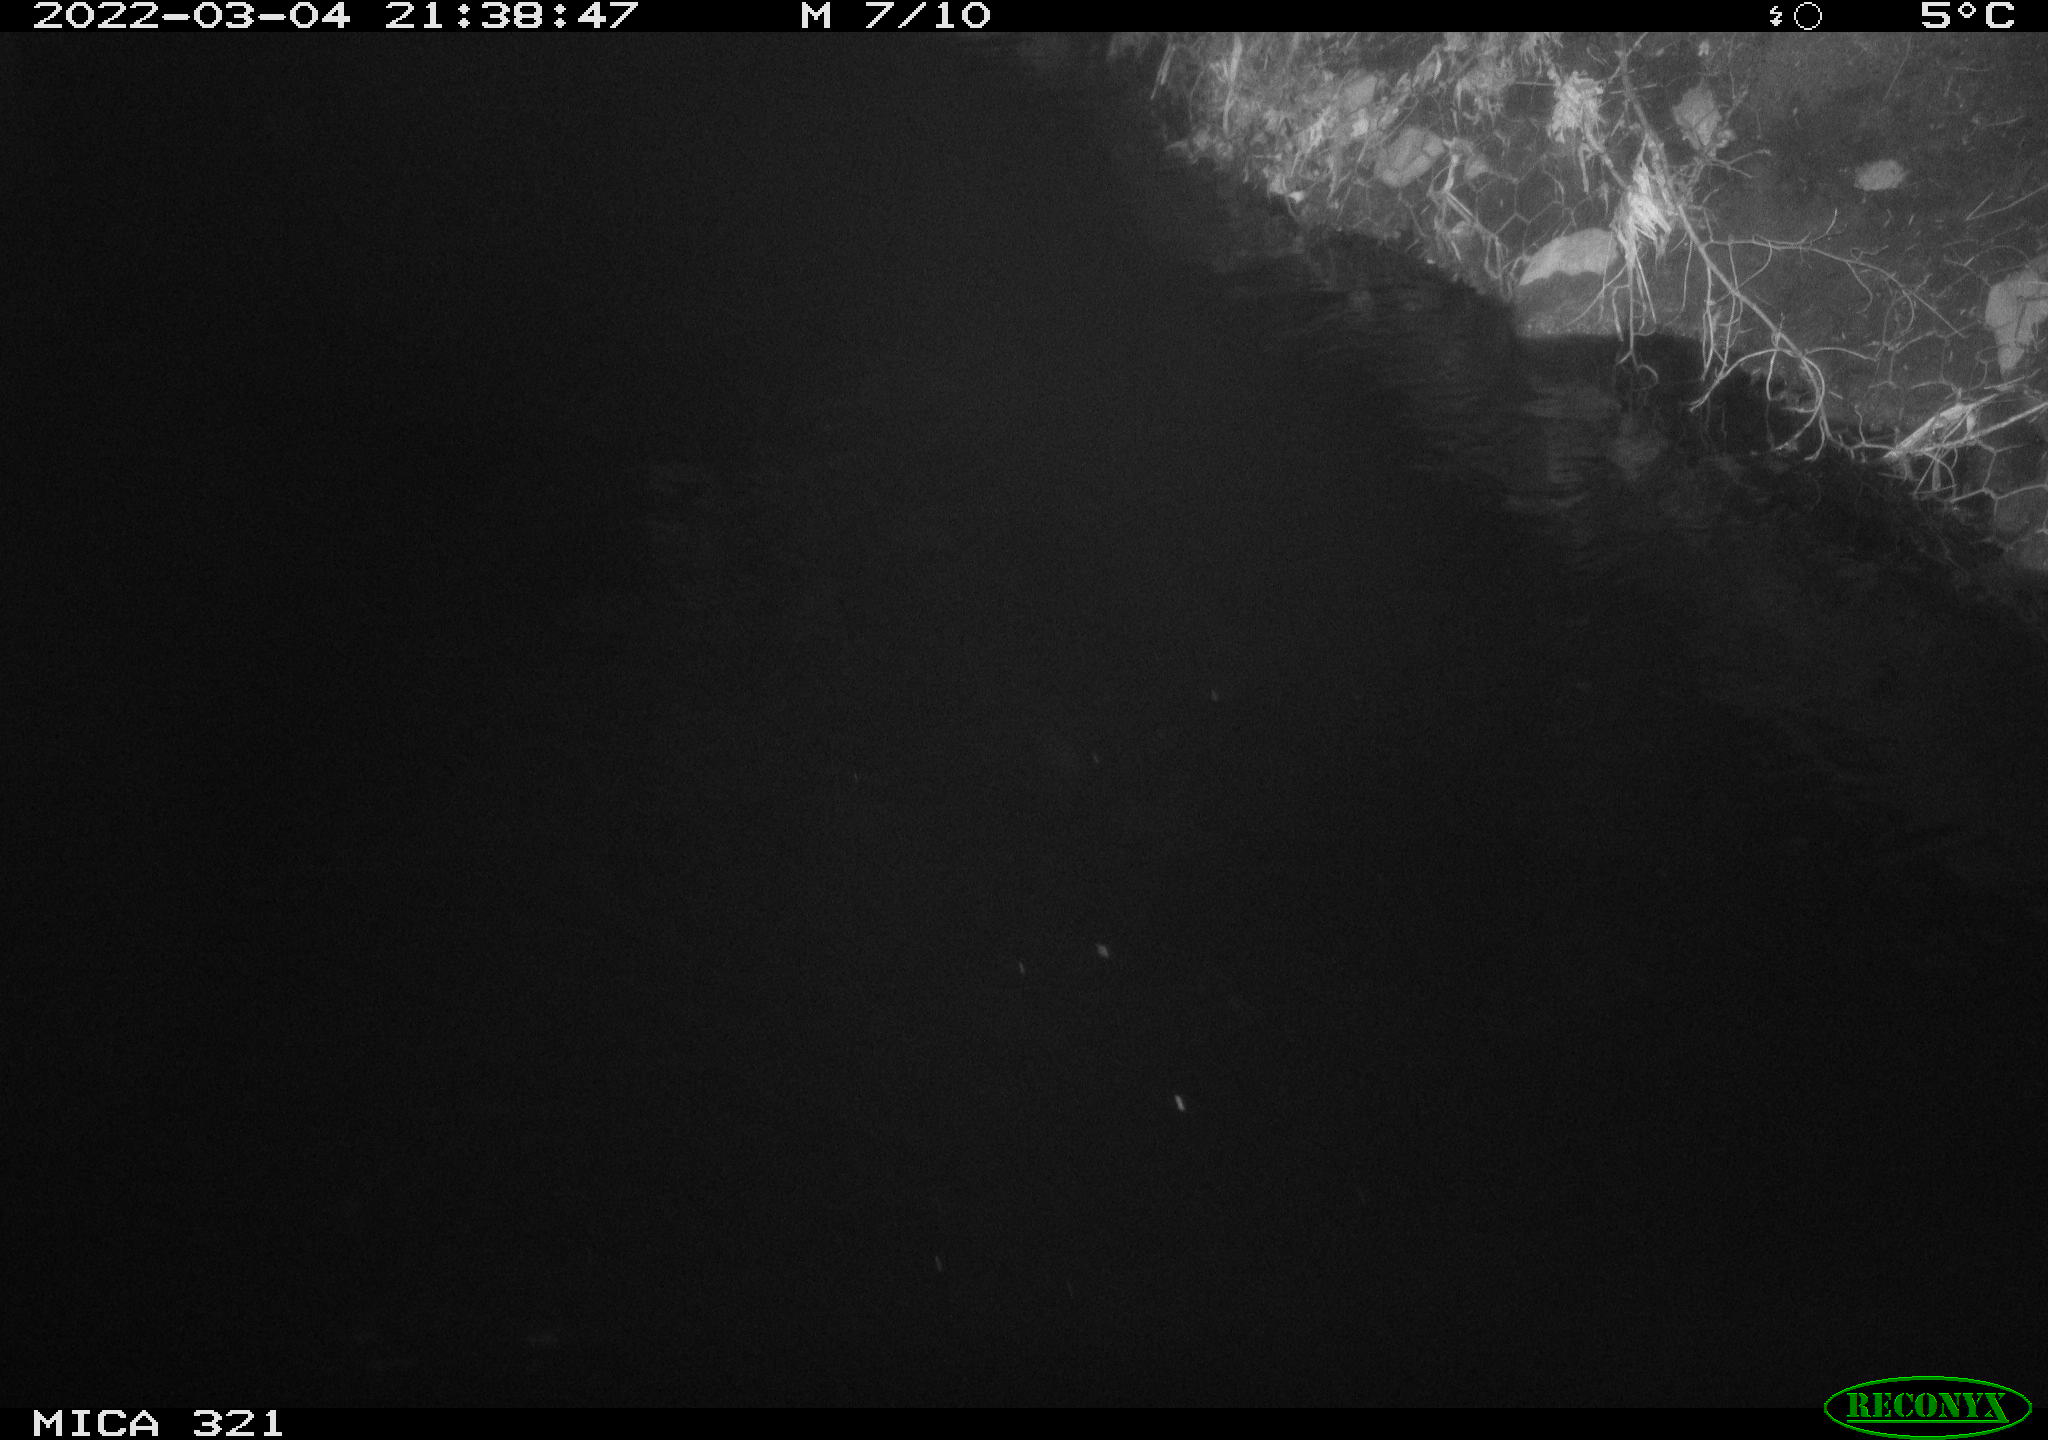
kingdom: Animalia
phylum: Chordata
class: Aves
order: Anseriformes
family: Anatidae
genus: Anas
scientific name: Anas platyrhynchos
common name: Mallard
